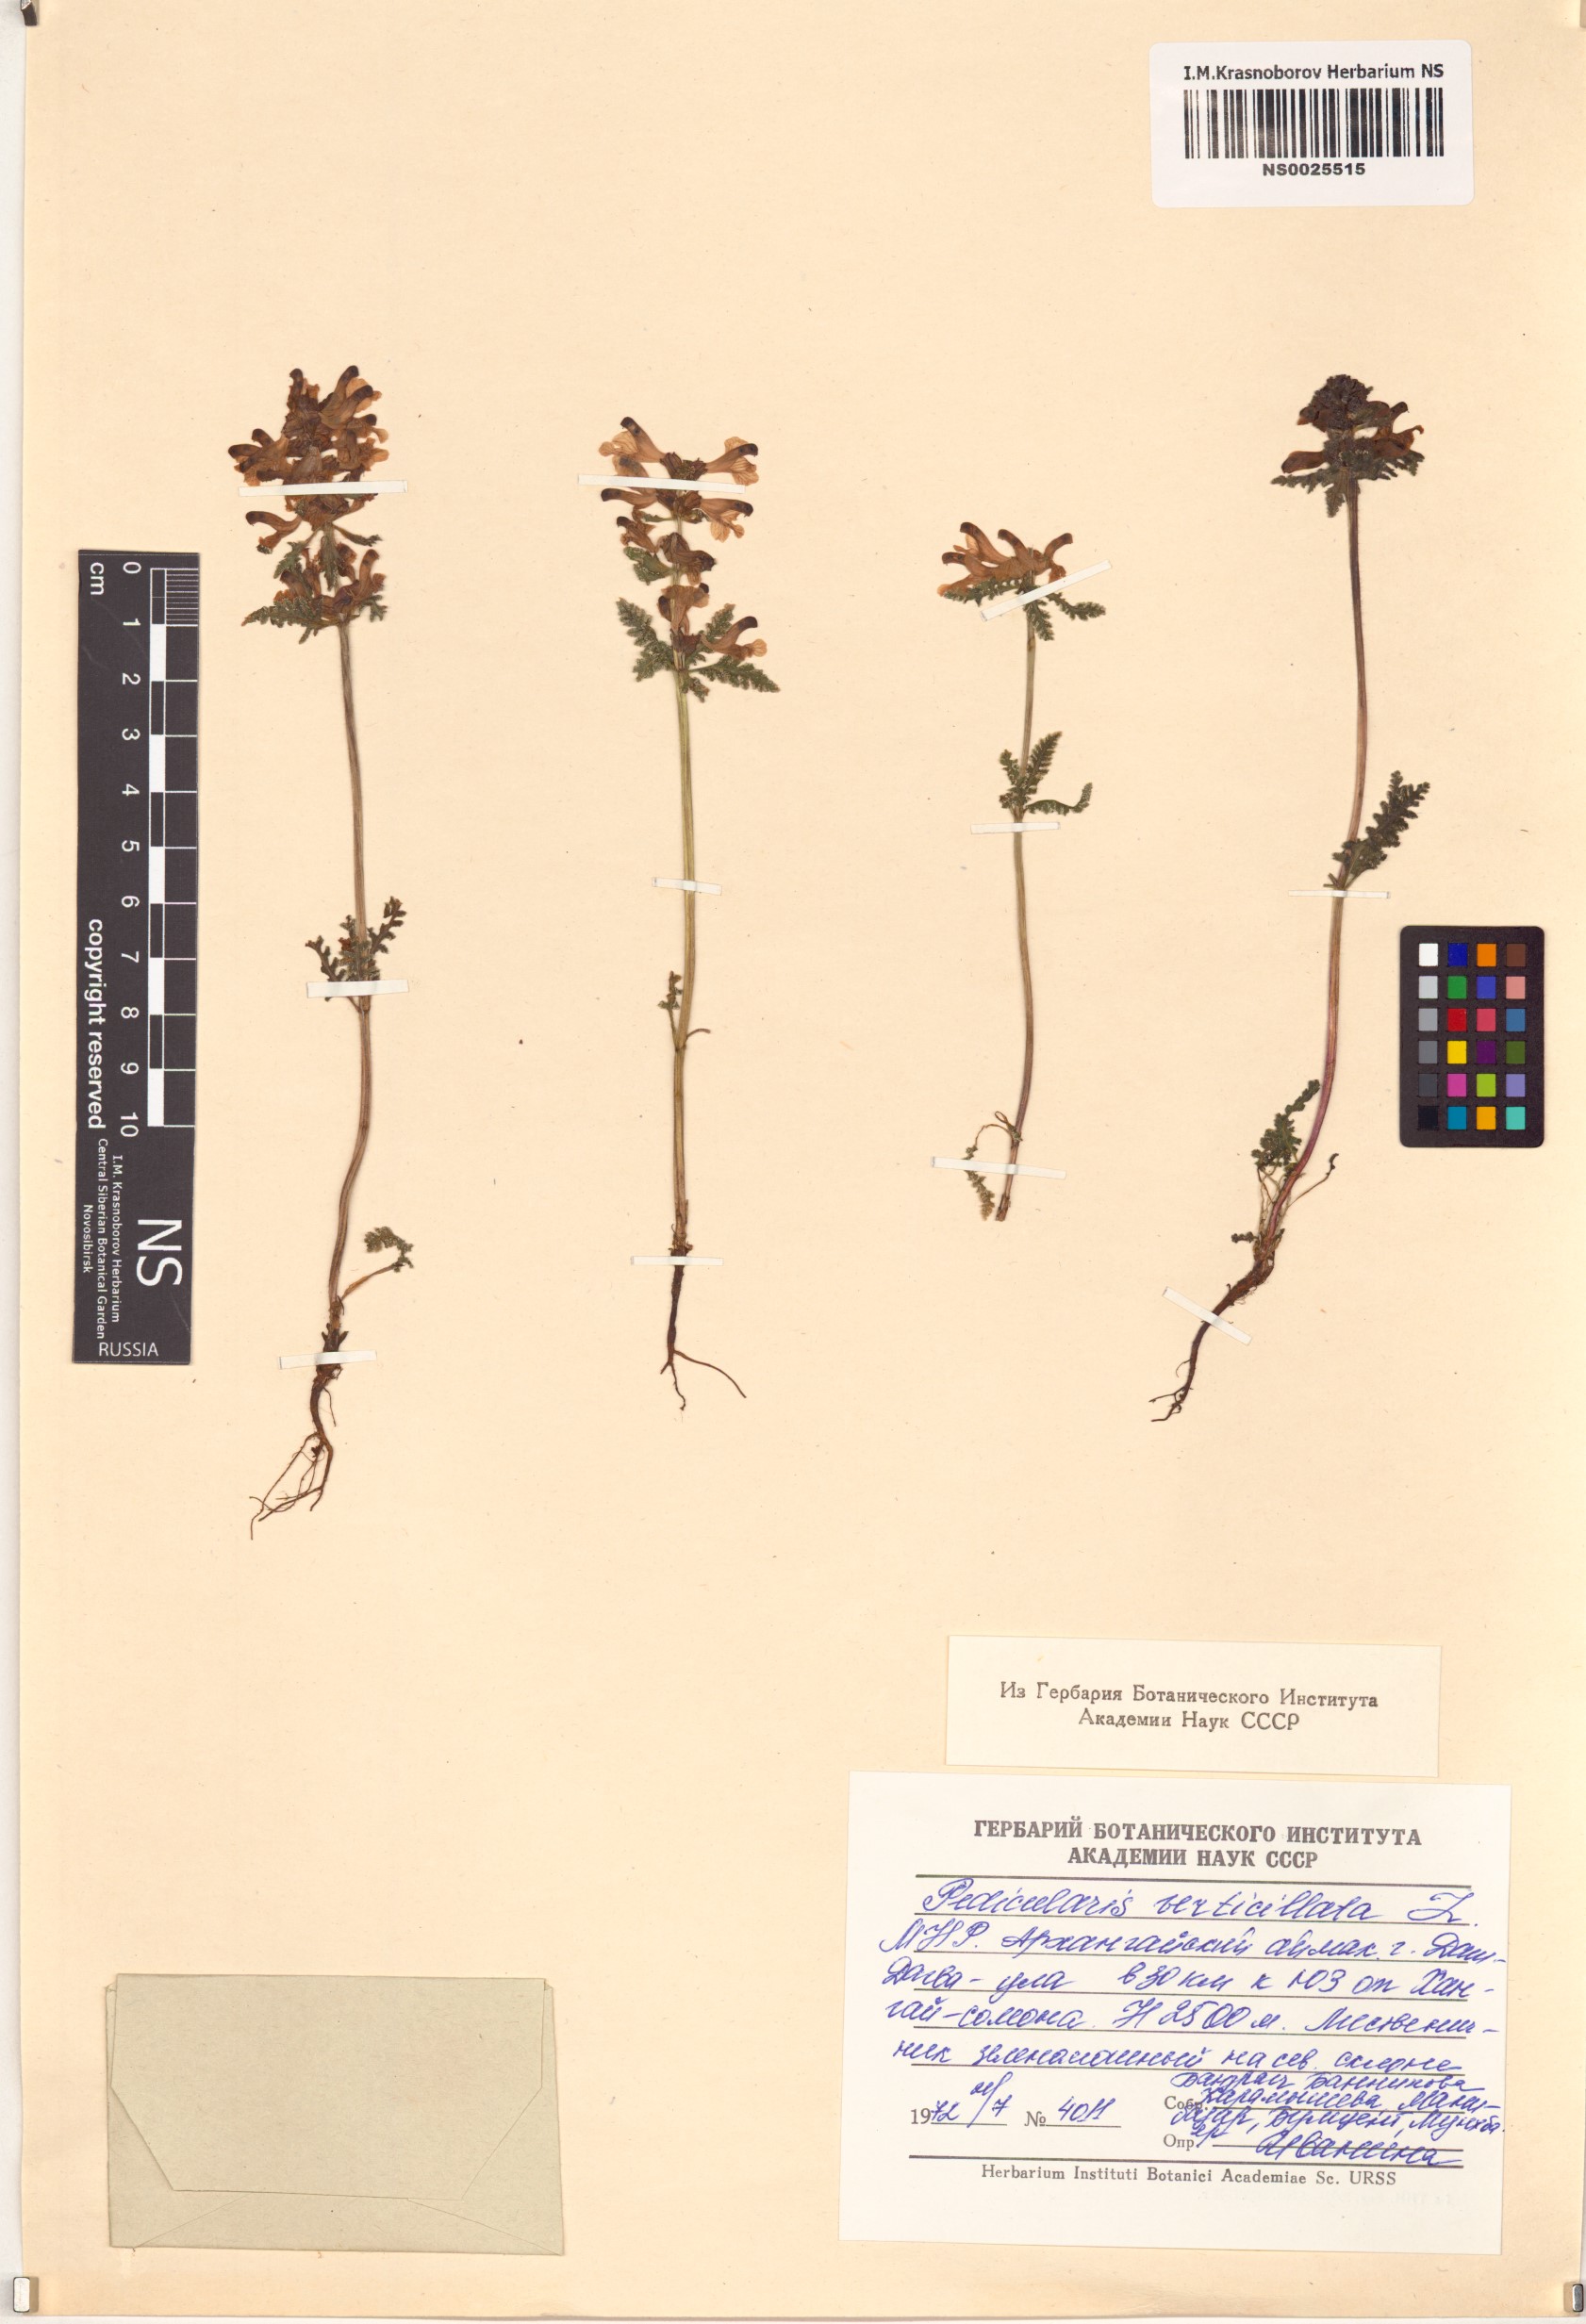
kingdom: Plantae
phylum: Tracheophyta
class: Magnoliopsida
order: Lamiales
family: Orobanchaceae
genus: Pedicularis
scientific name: Pedicularis verticillata
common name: Whorled lousewort
